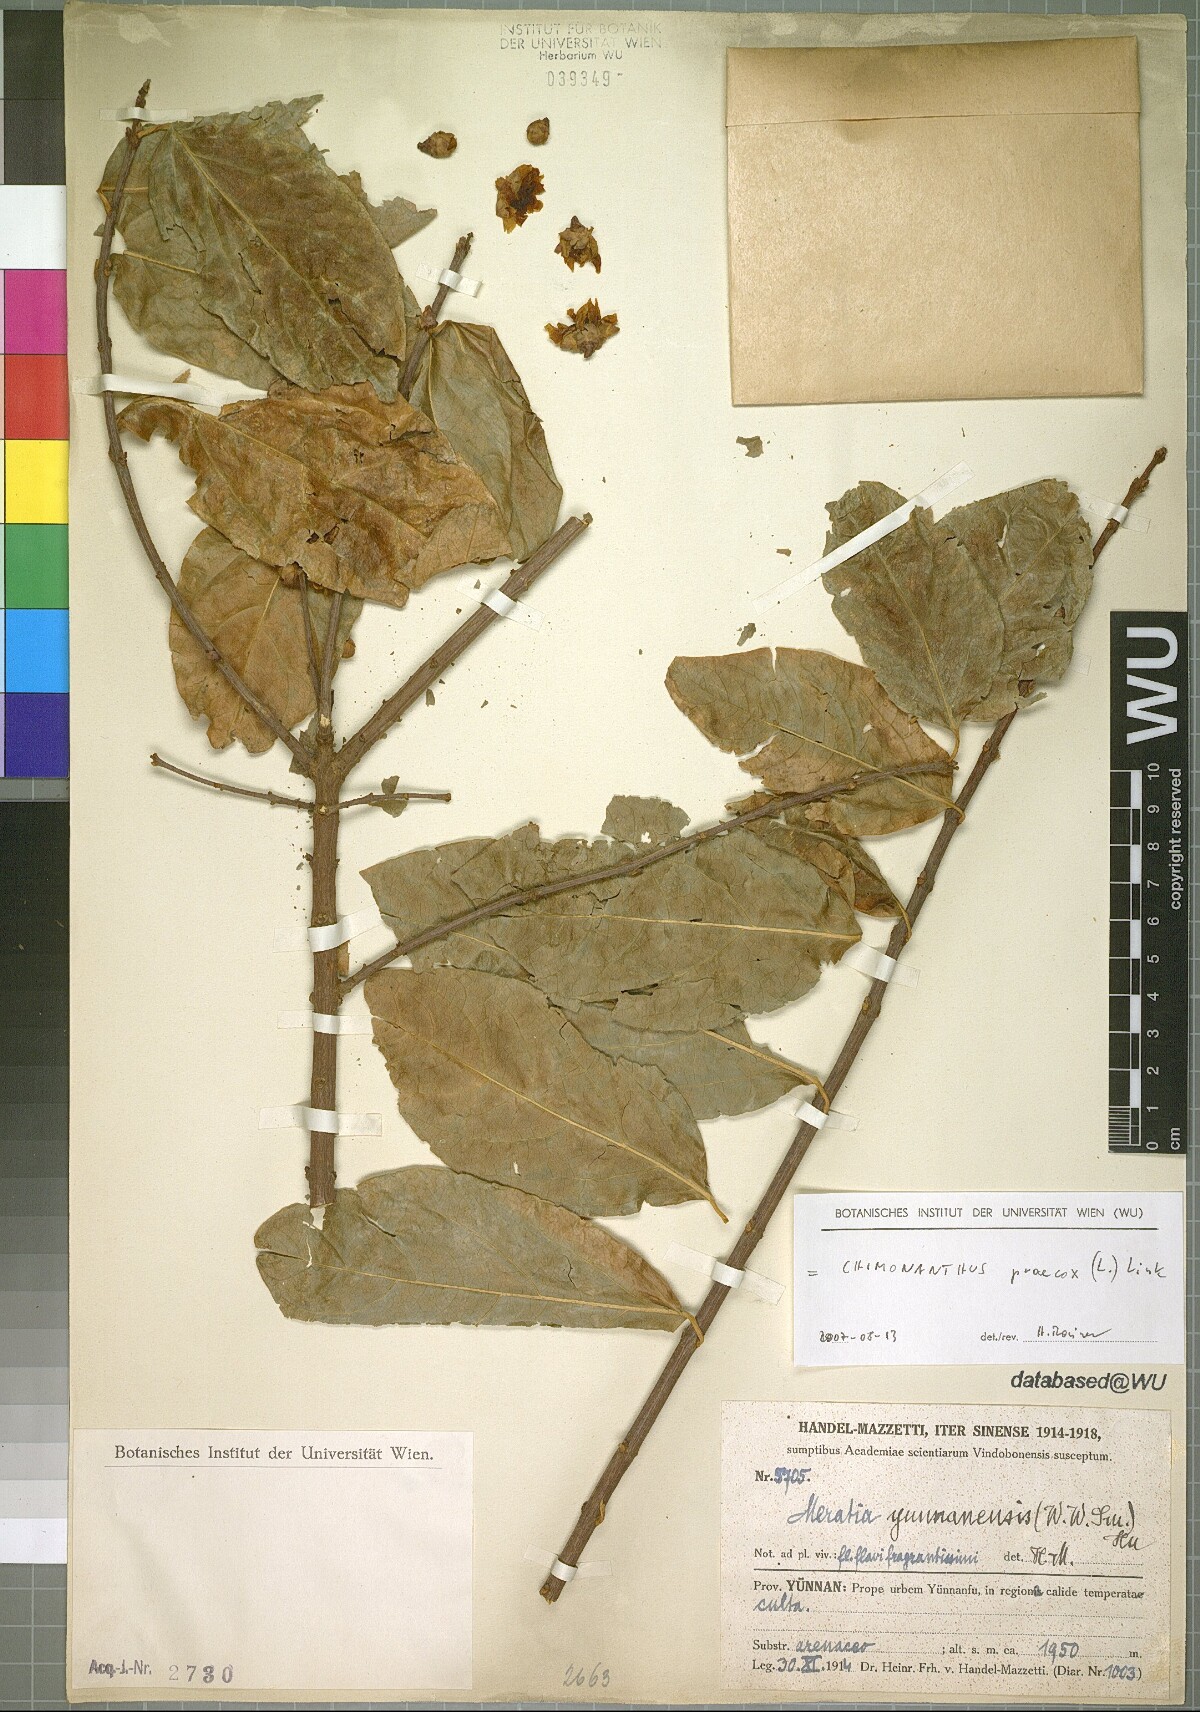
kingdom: Plantae
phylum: Tracheophyta
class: Magnoliopsida
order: Laurales
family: Calycanthaceae
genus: Chimonanthus
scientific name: Chimonanthus praecox
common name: Wintersweet
